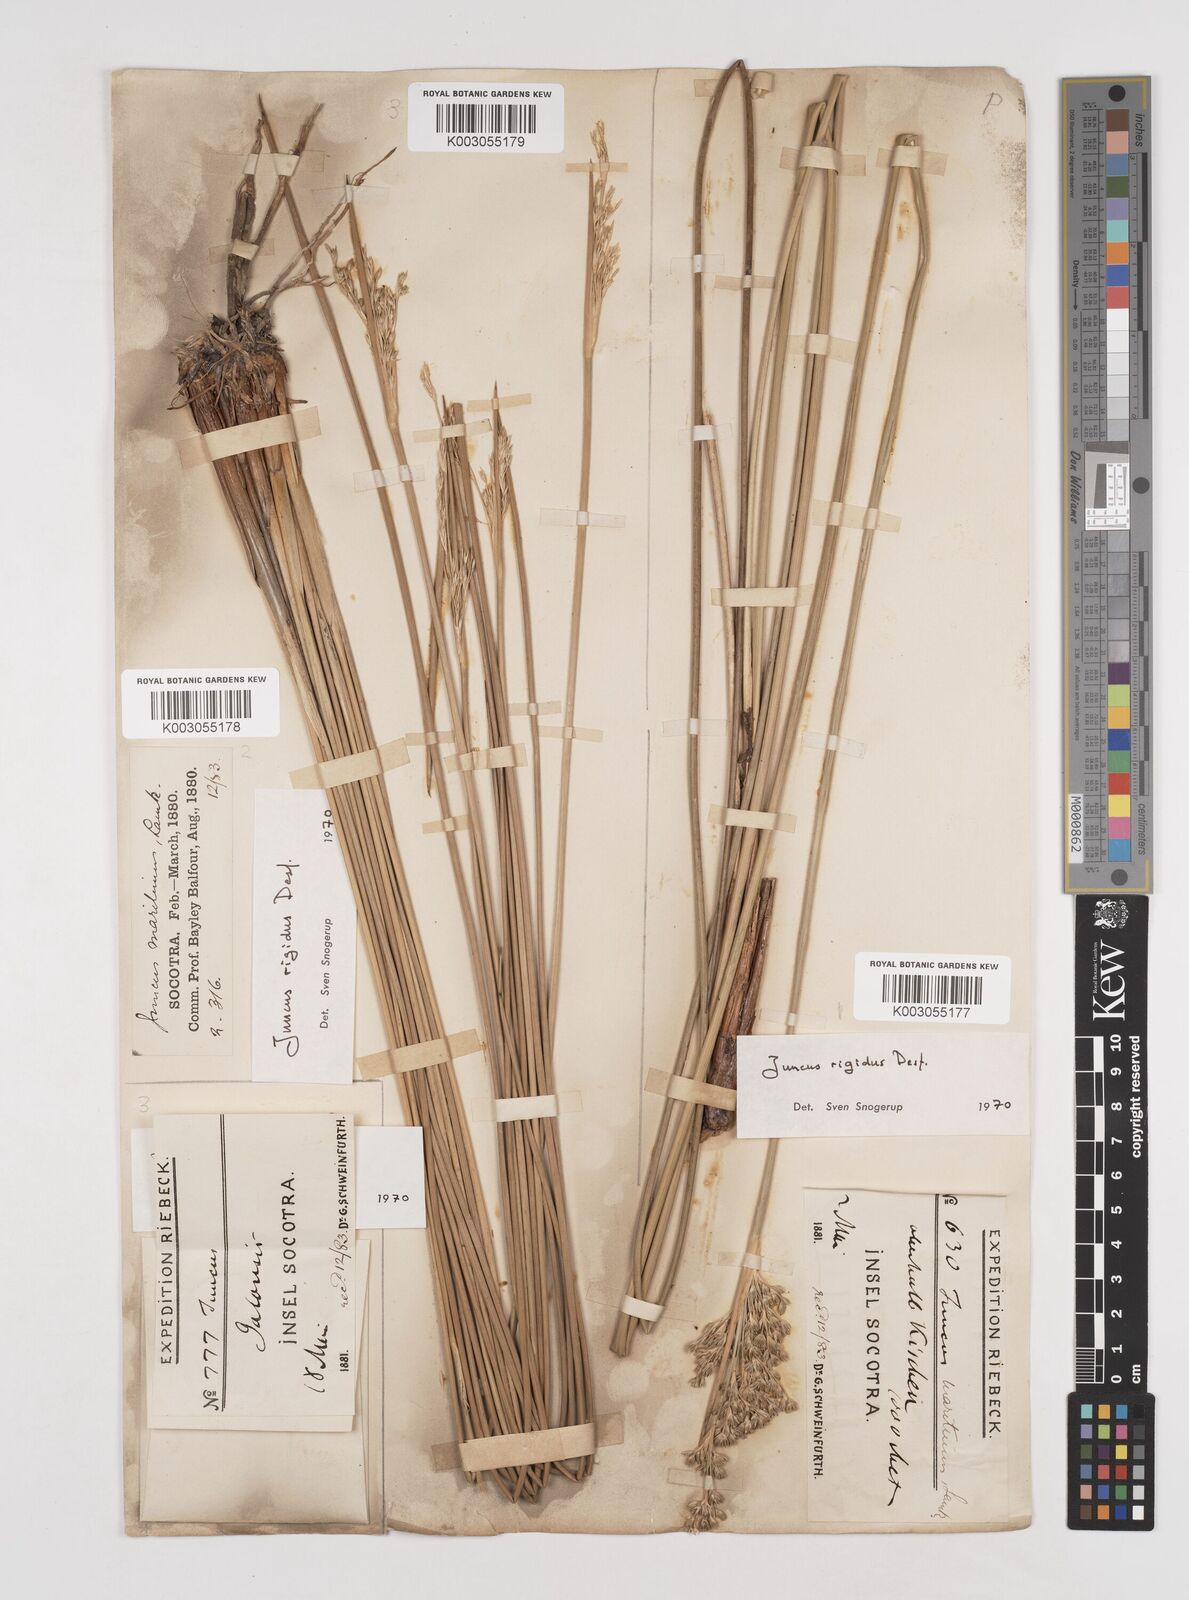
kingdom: Plantae
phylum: Tracheophyta
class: Liliopsida
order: Poales
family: Juncaceae
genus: Juncus
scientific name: Juncus rigidus
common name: Hard sea rush
